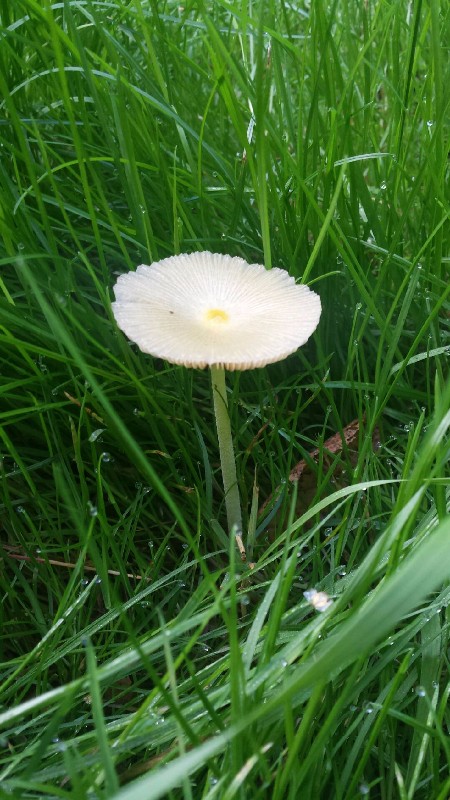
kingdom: Fungi
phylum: Basidiomycota
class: Agaricomycetes
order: Agaricales
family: Bolbitiaceae
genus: Bolbitius
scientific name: Bolbitius titubans
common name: almindelig gulhat
